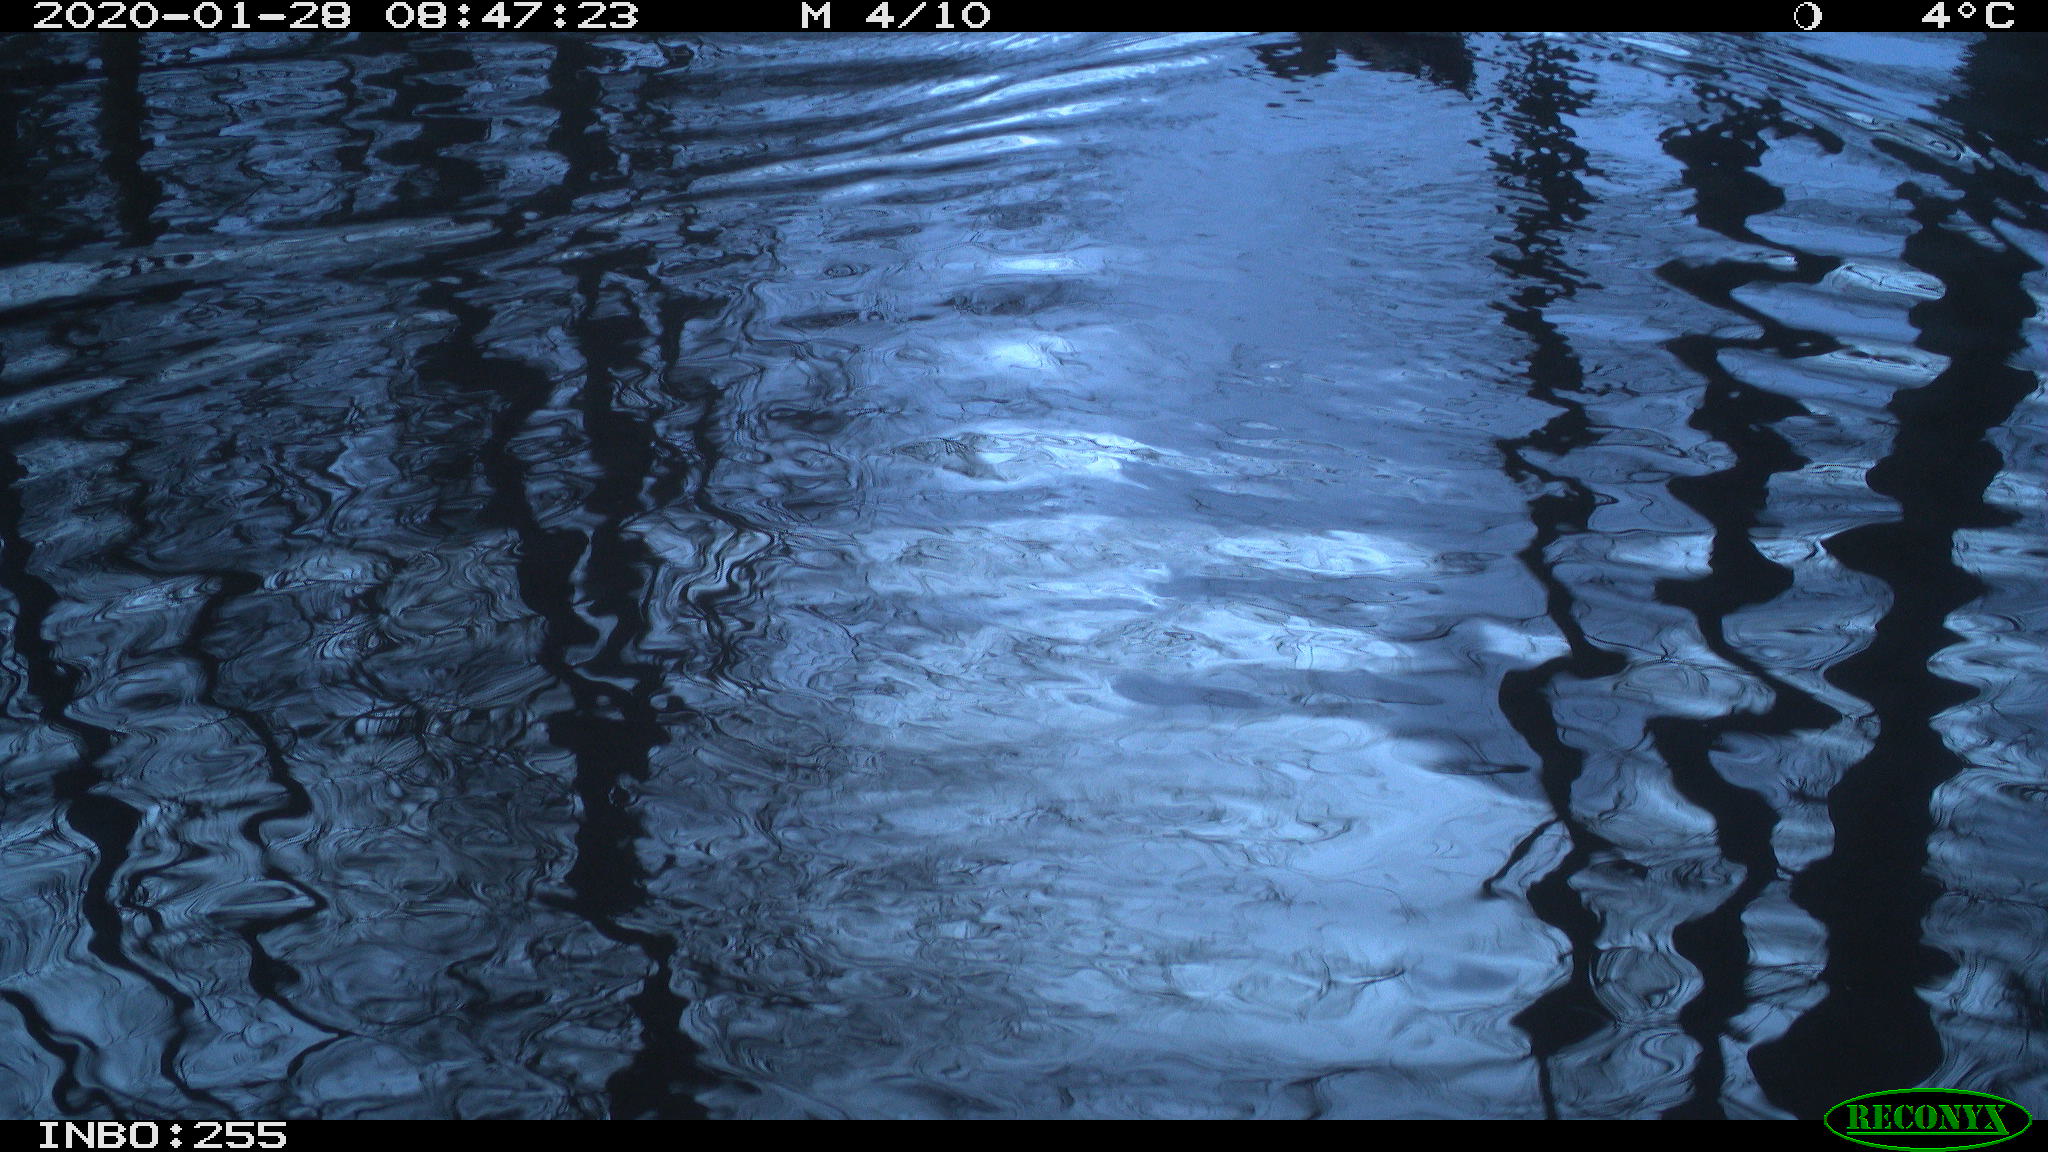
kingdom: Animalia
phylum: Chordata
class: Aves
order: Anseriformes
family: Anatidae
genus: Anas
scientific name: Anas platyrhynchos
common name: Mallard
